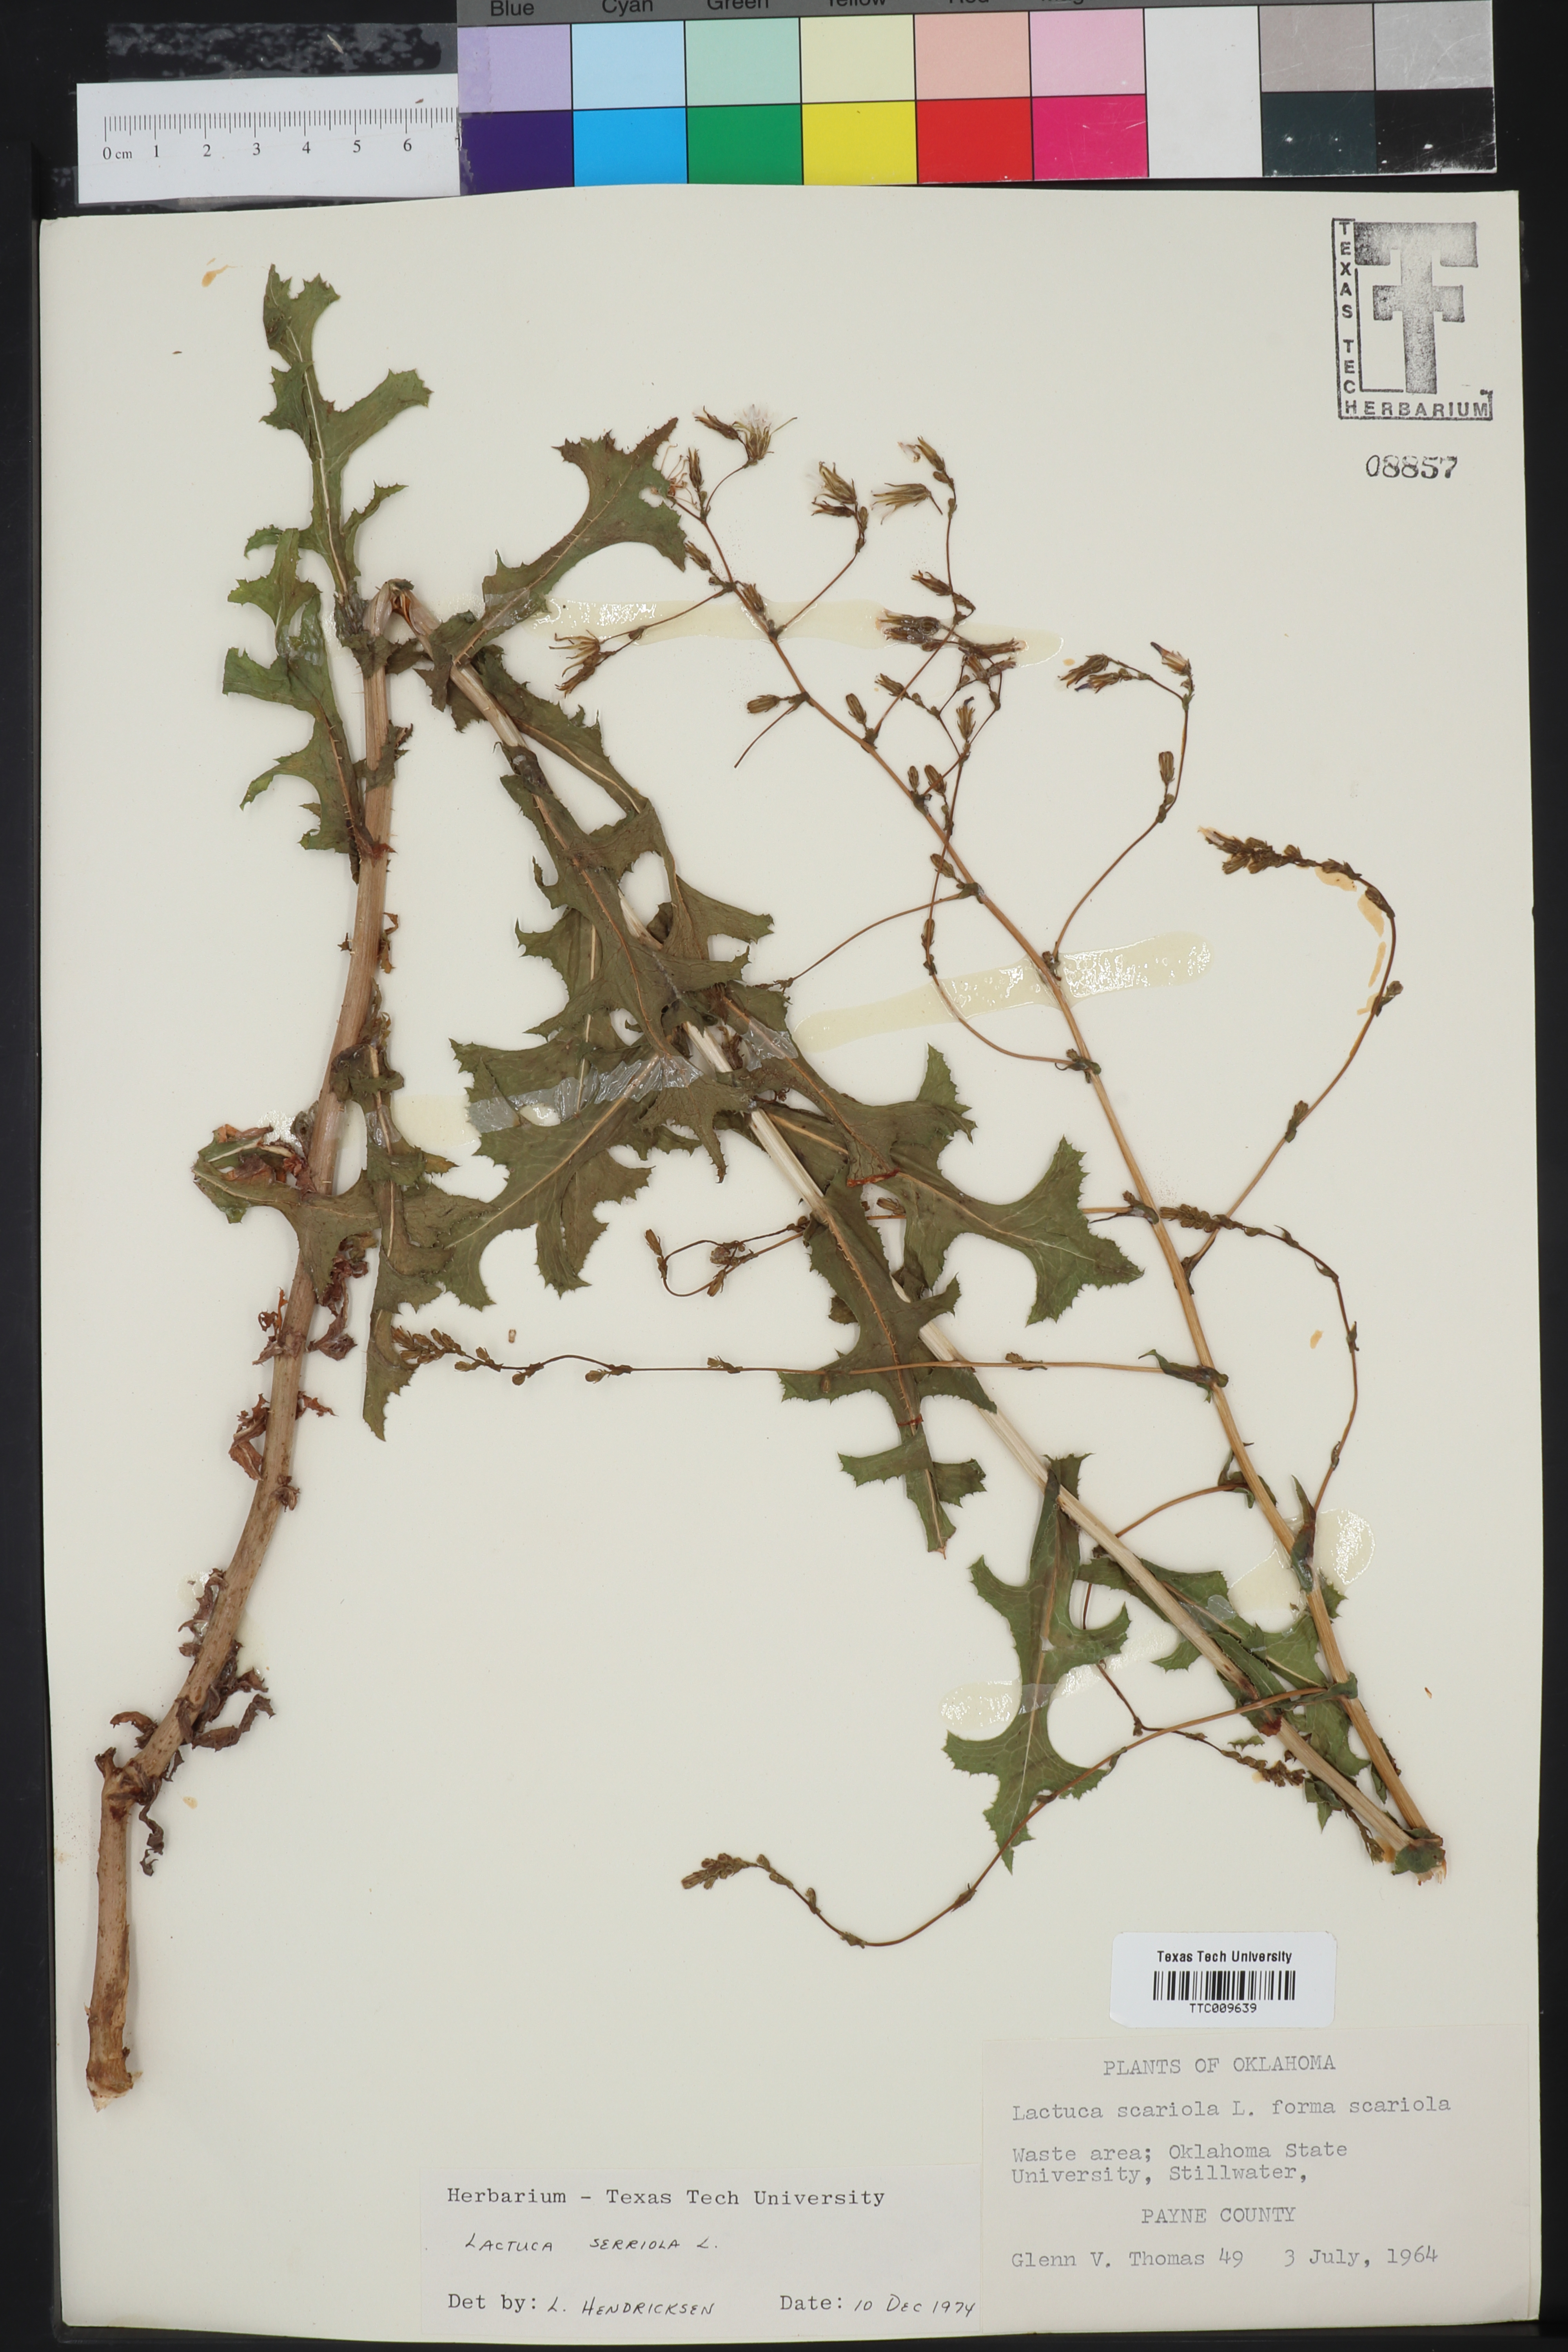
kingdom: Plantae
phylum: Tracheophyta
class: Magnoliopsida
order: Asterales
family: Asteraceae
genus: Lactuca
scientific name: Lactuca serriola
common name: Prickly lettuce
